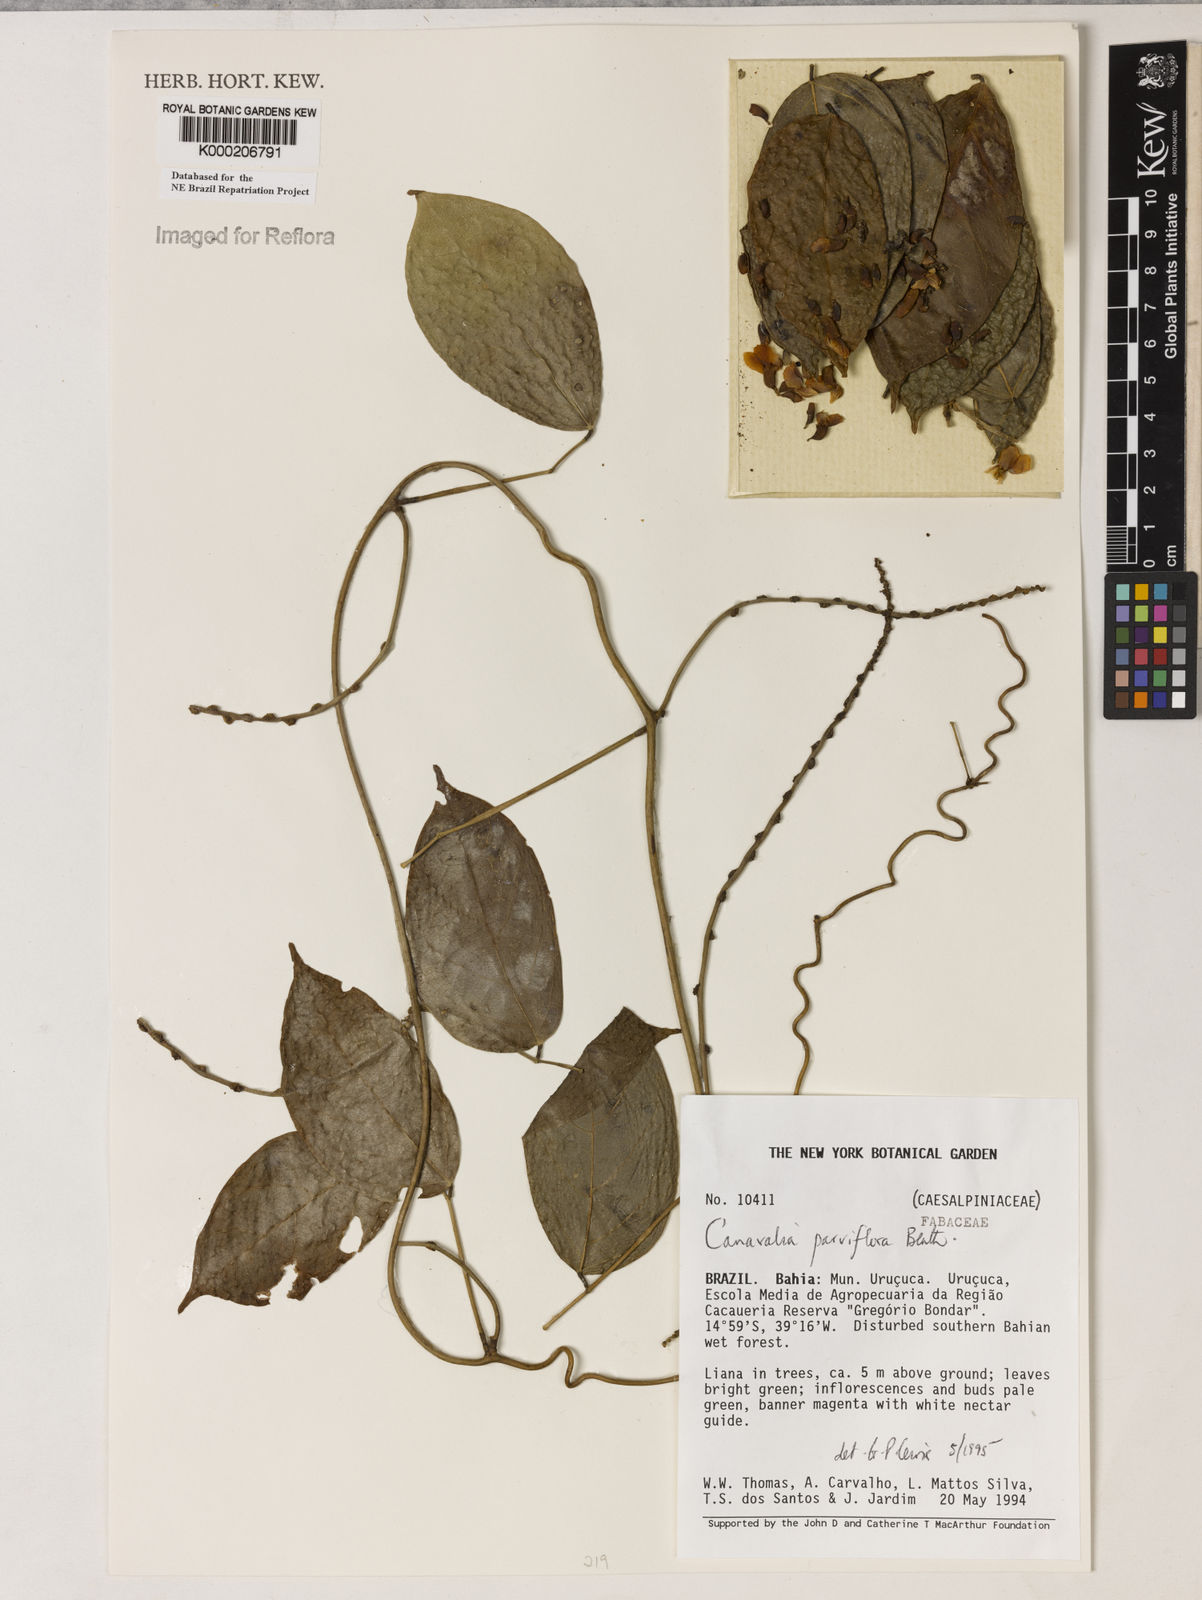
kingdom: Plantae
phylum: Tracheophyta
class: Magnoliopsida
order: Fabales
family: Fabaceae
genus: Canavalia
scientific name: Canavalia parviflora
